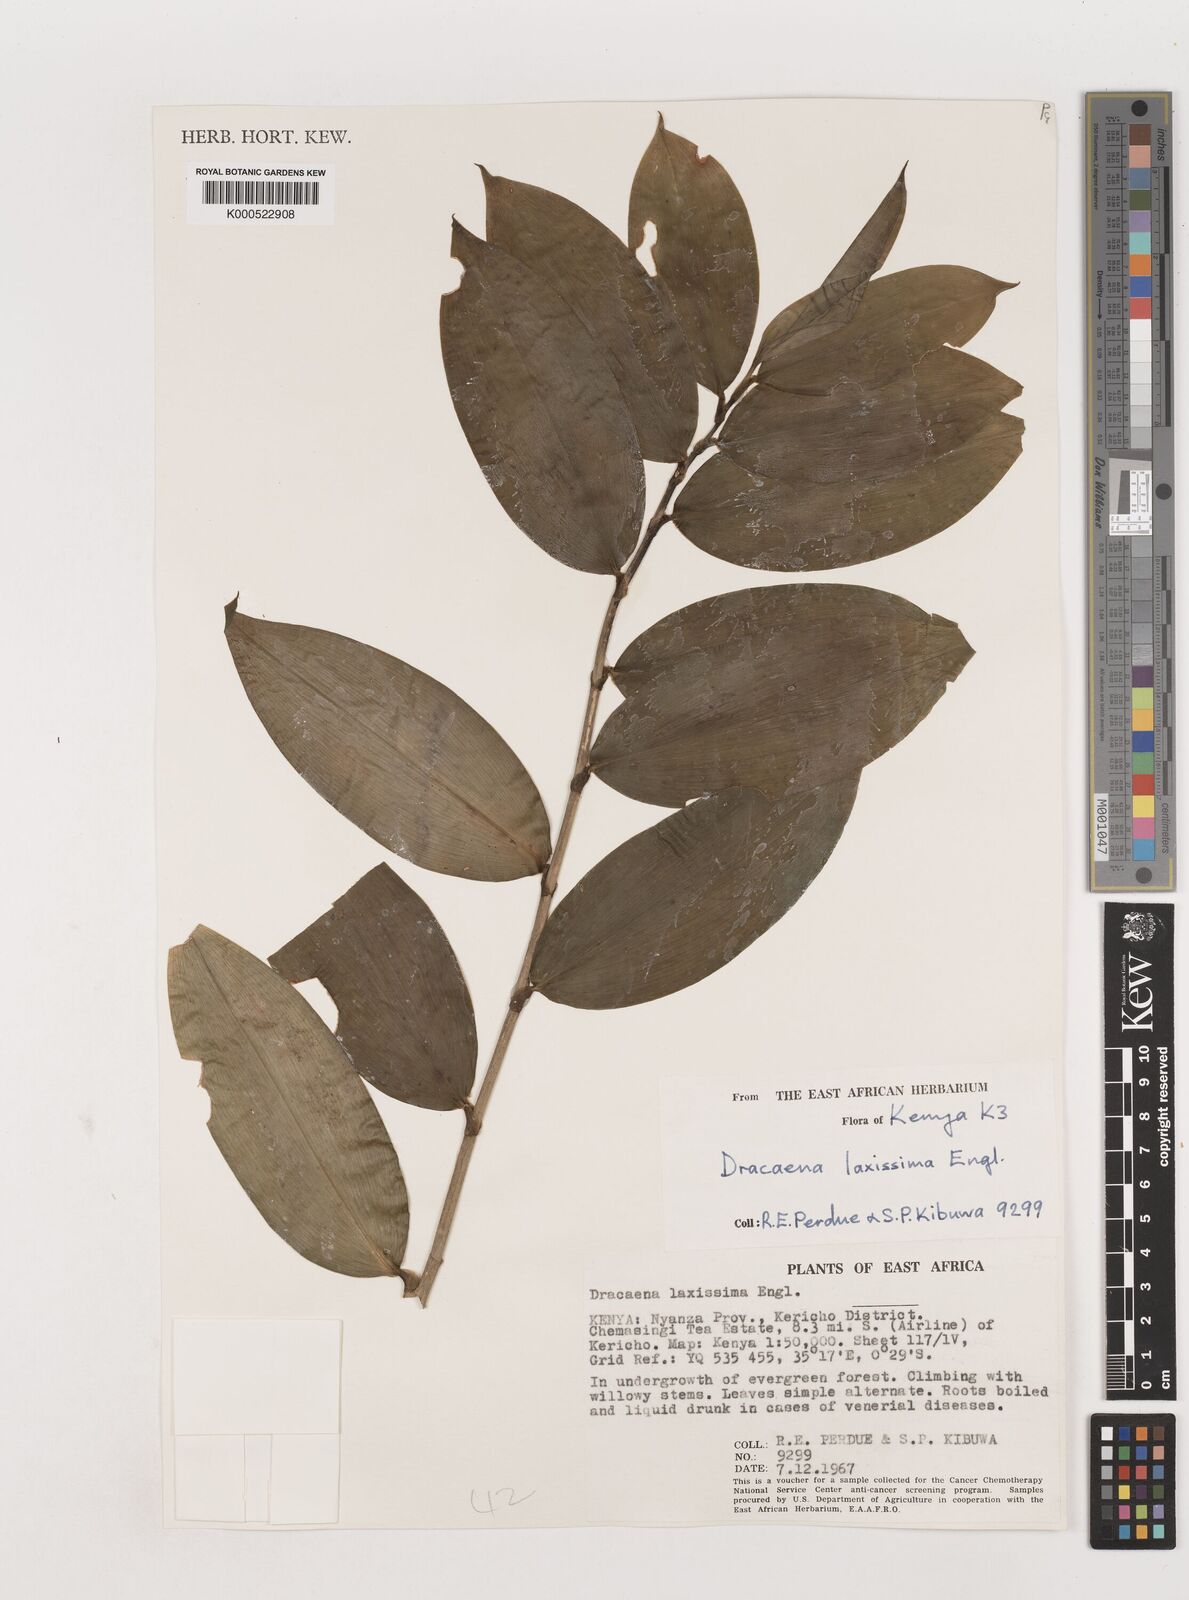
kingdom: Plantae
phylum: Tracheophyta
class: Liliopsida
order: Asparagales
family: Asparagaceae
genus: Dracaena
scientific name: Dracaena laxissima
